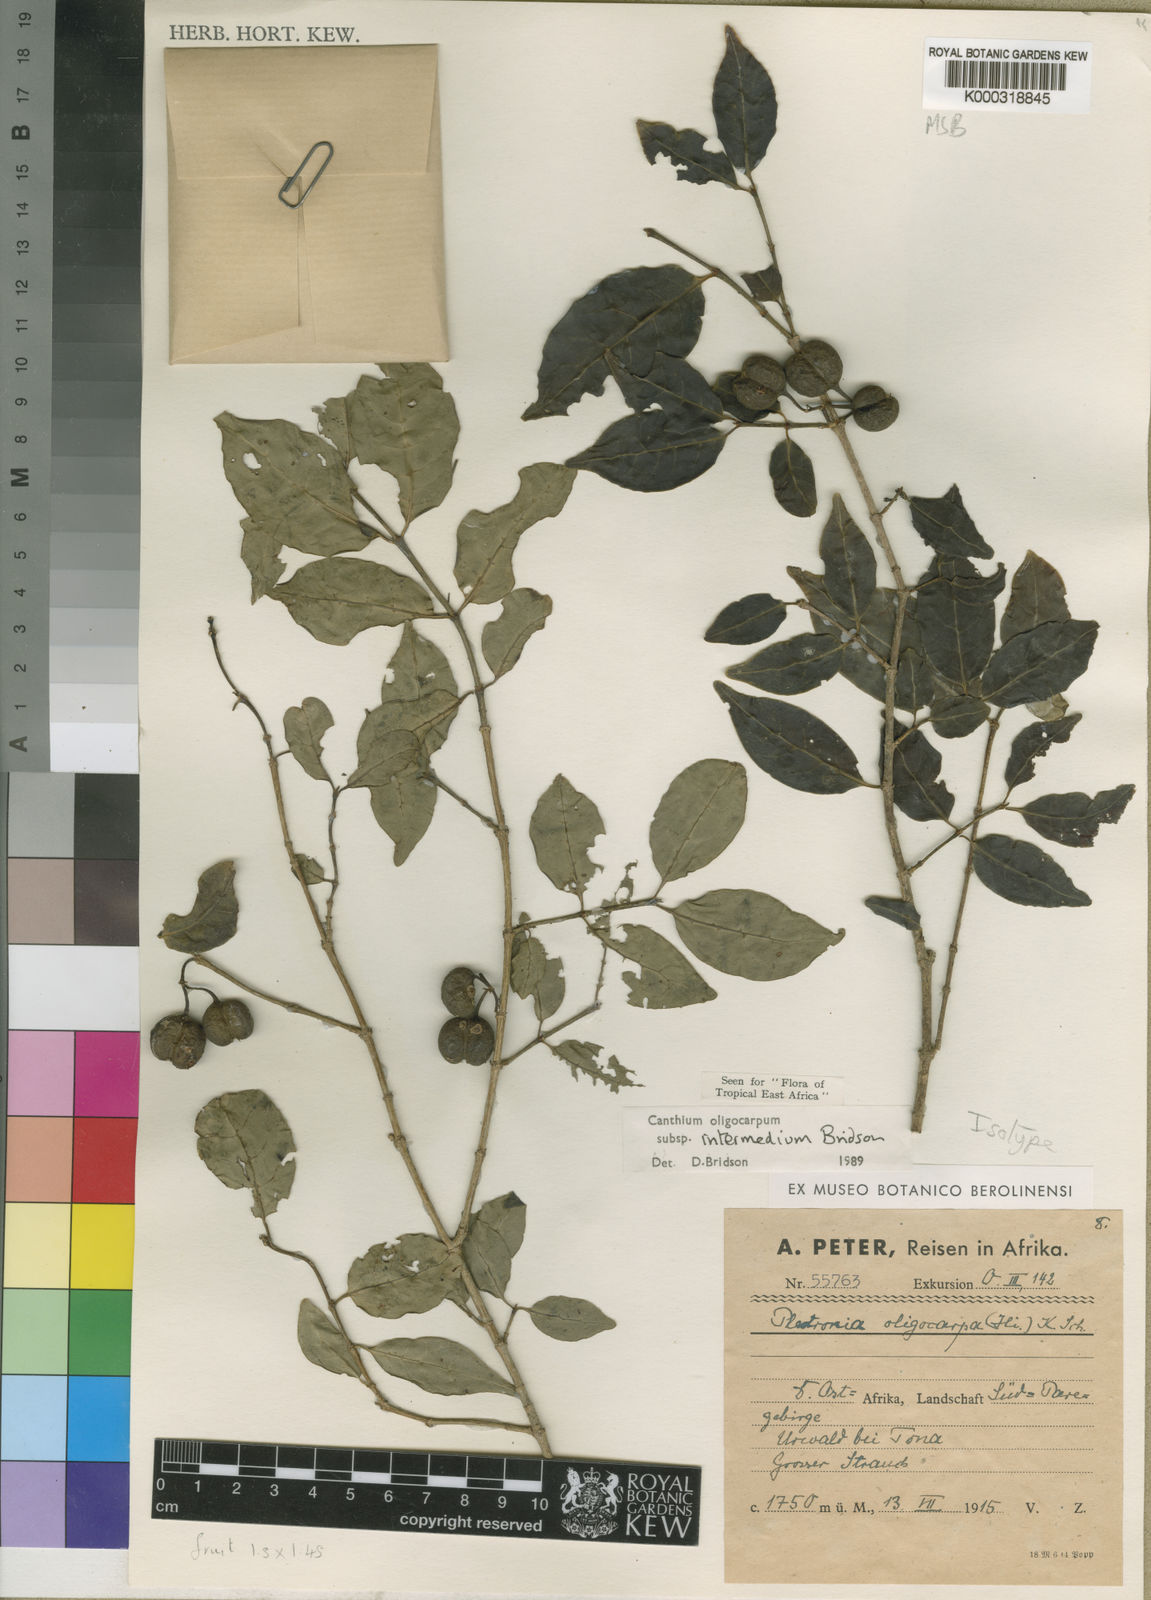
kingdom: Plantae
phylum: Tracheophyta
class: Magnoliopsida
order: Gentianales
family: Rubiaceae
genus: Canthium
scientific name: Canthium oligocarpum
